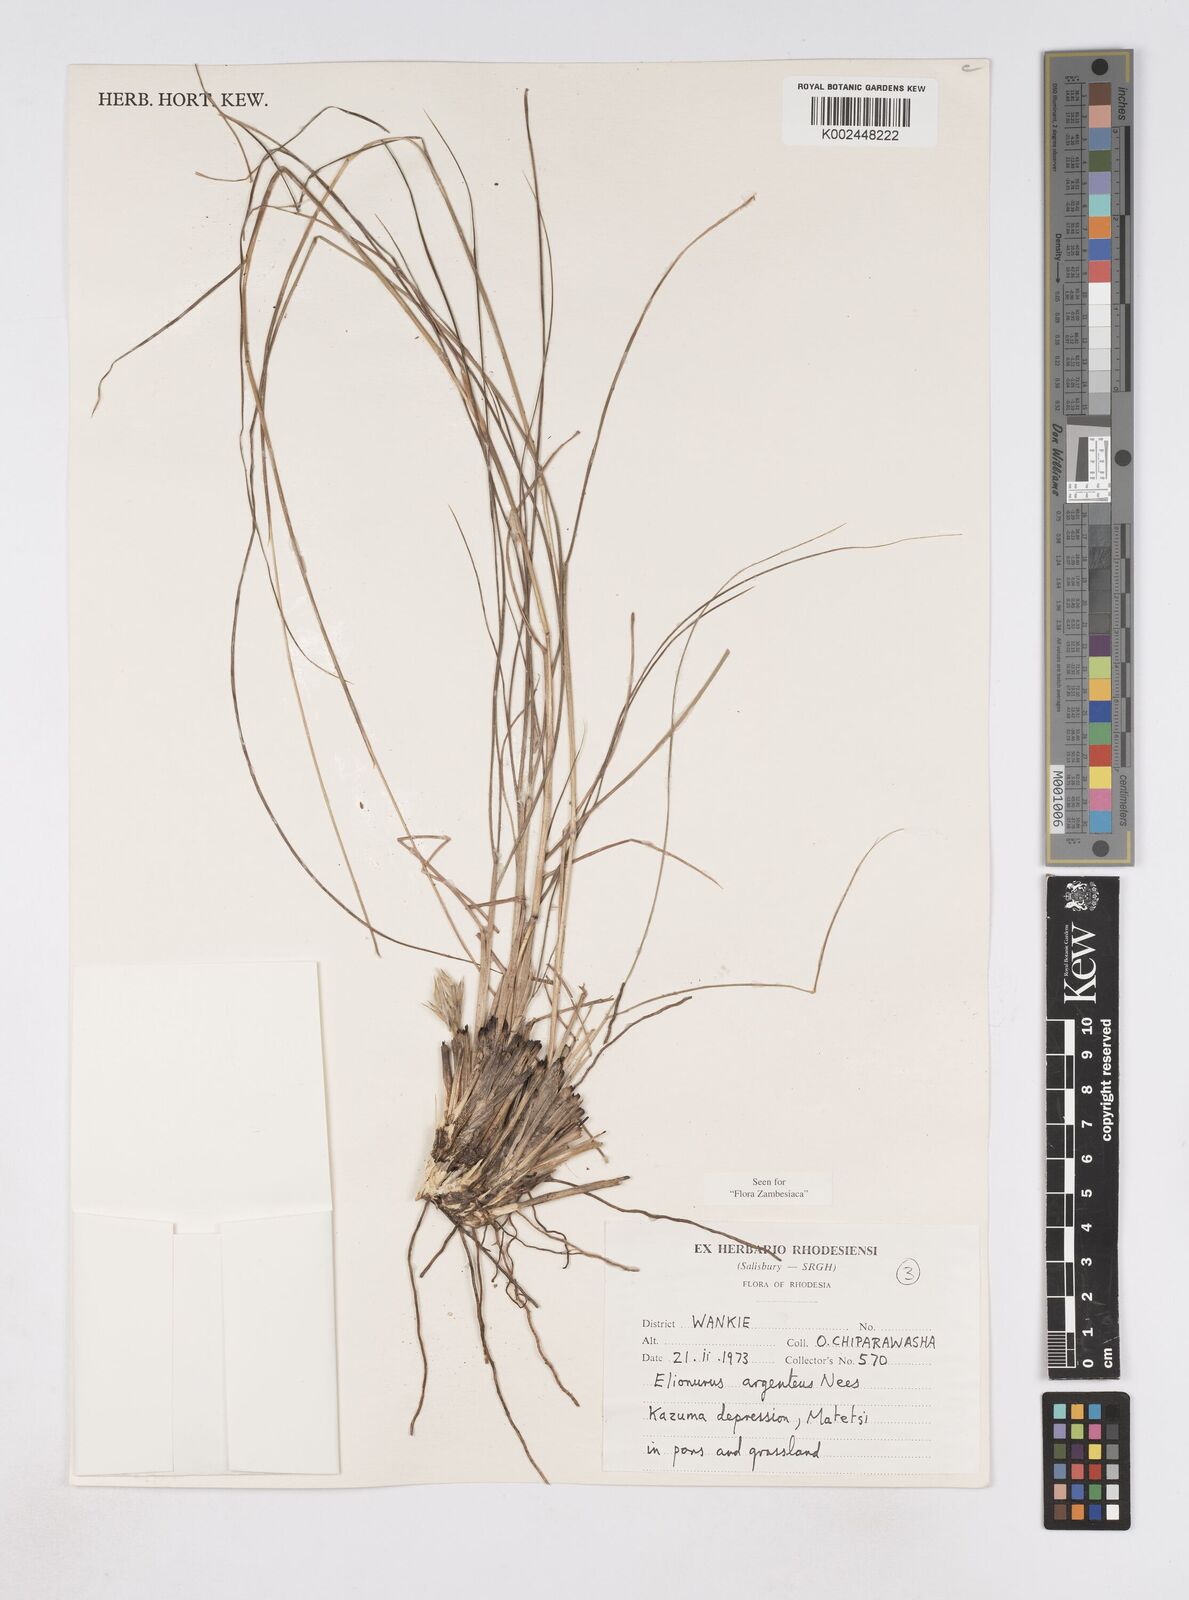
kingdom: Plantae
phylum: Tracheophyta
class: Liliopsida
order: Poales
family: Poaceae
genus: Elionurus
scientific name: Elionurus muticus
